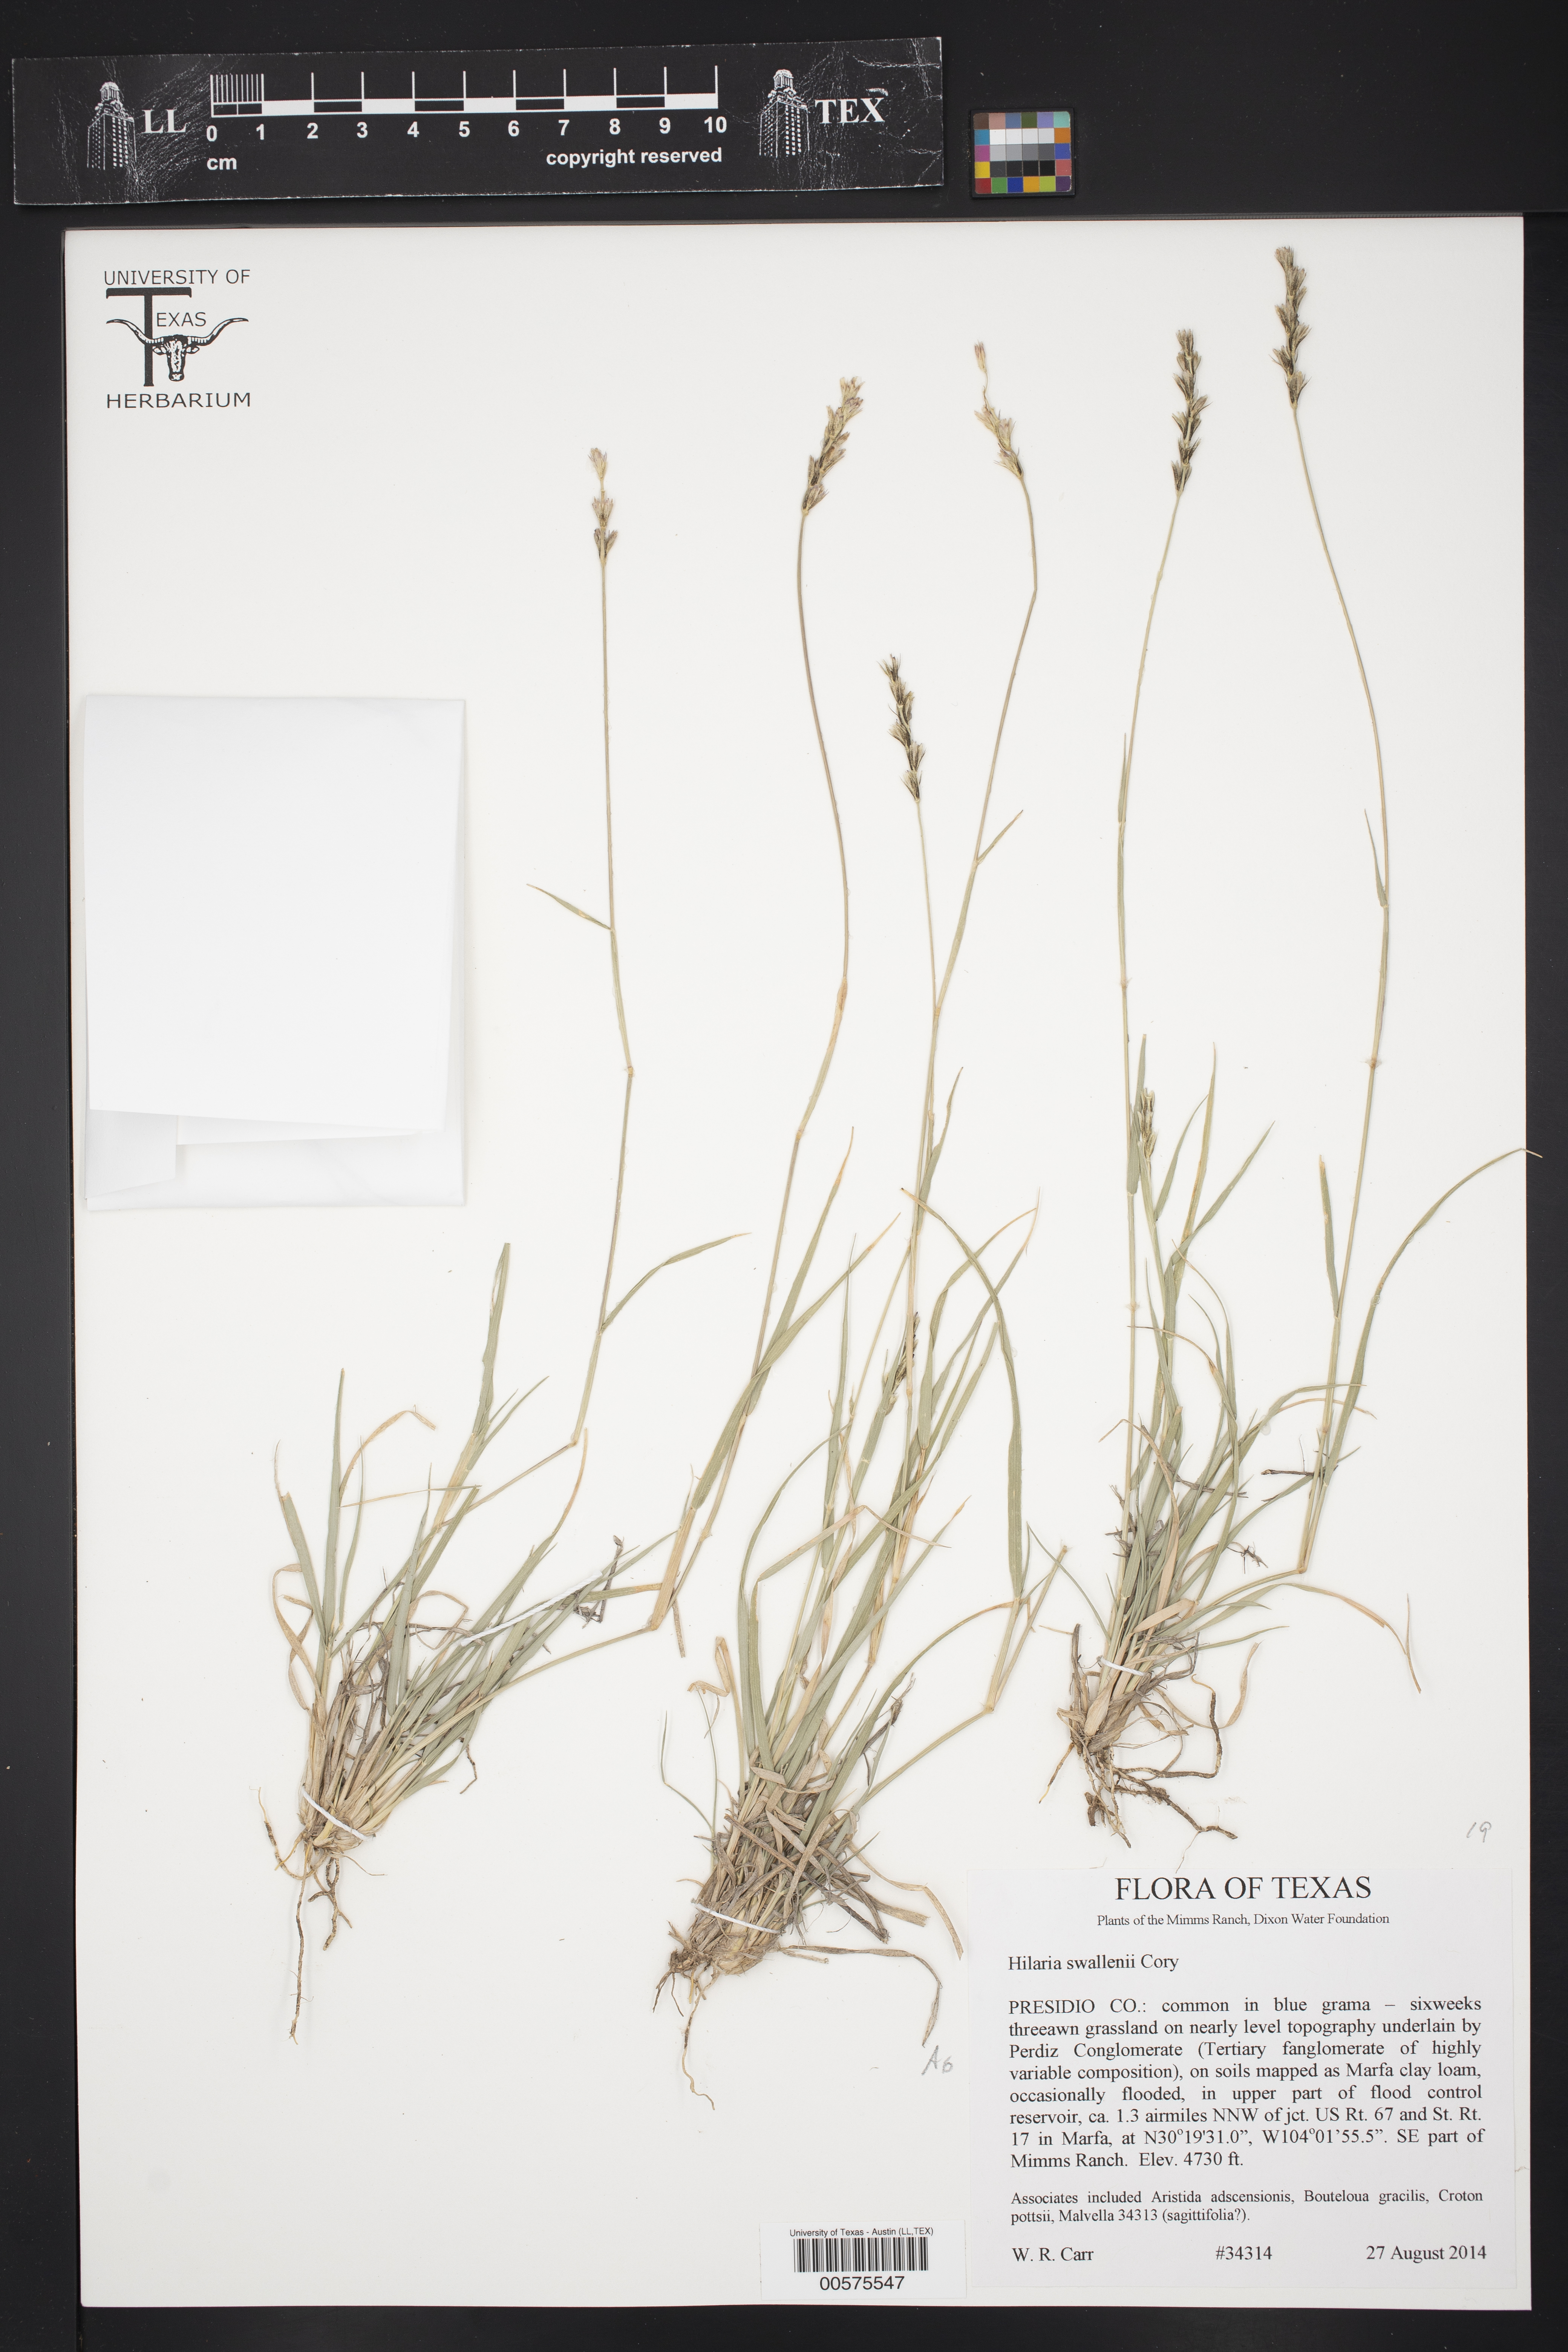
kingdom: Plantae
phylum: Tracheophyta
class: Liliopsida
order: Poales
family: Poaceae
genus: Hilaria
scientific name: Hilaria swallenii
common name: Swallen's curly-mesquite
